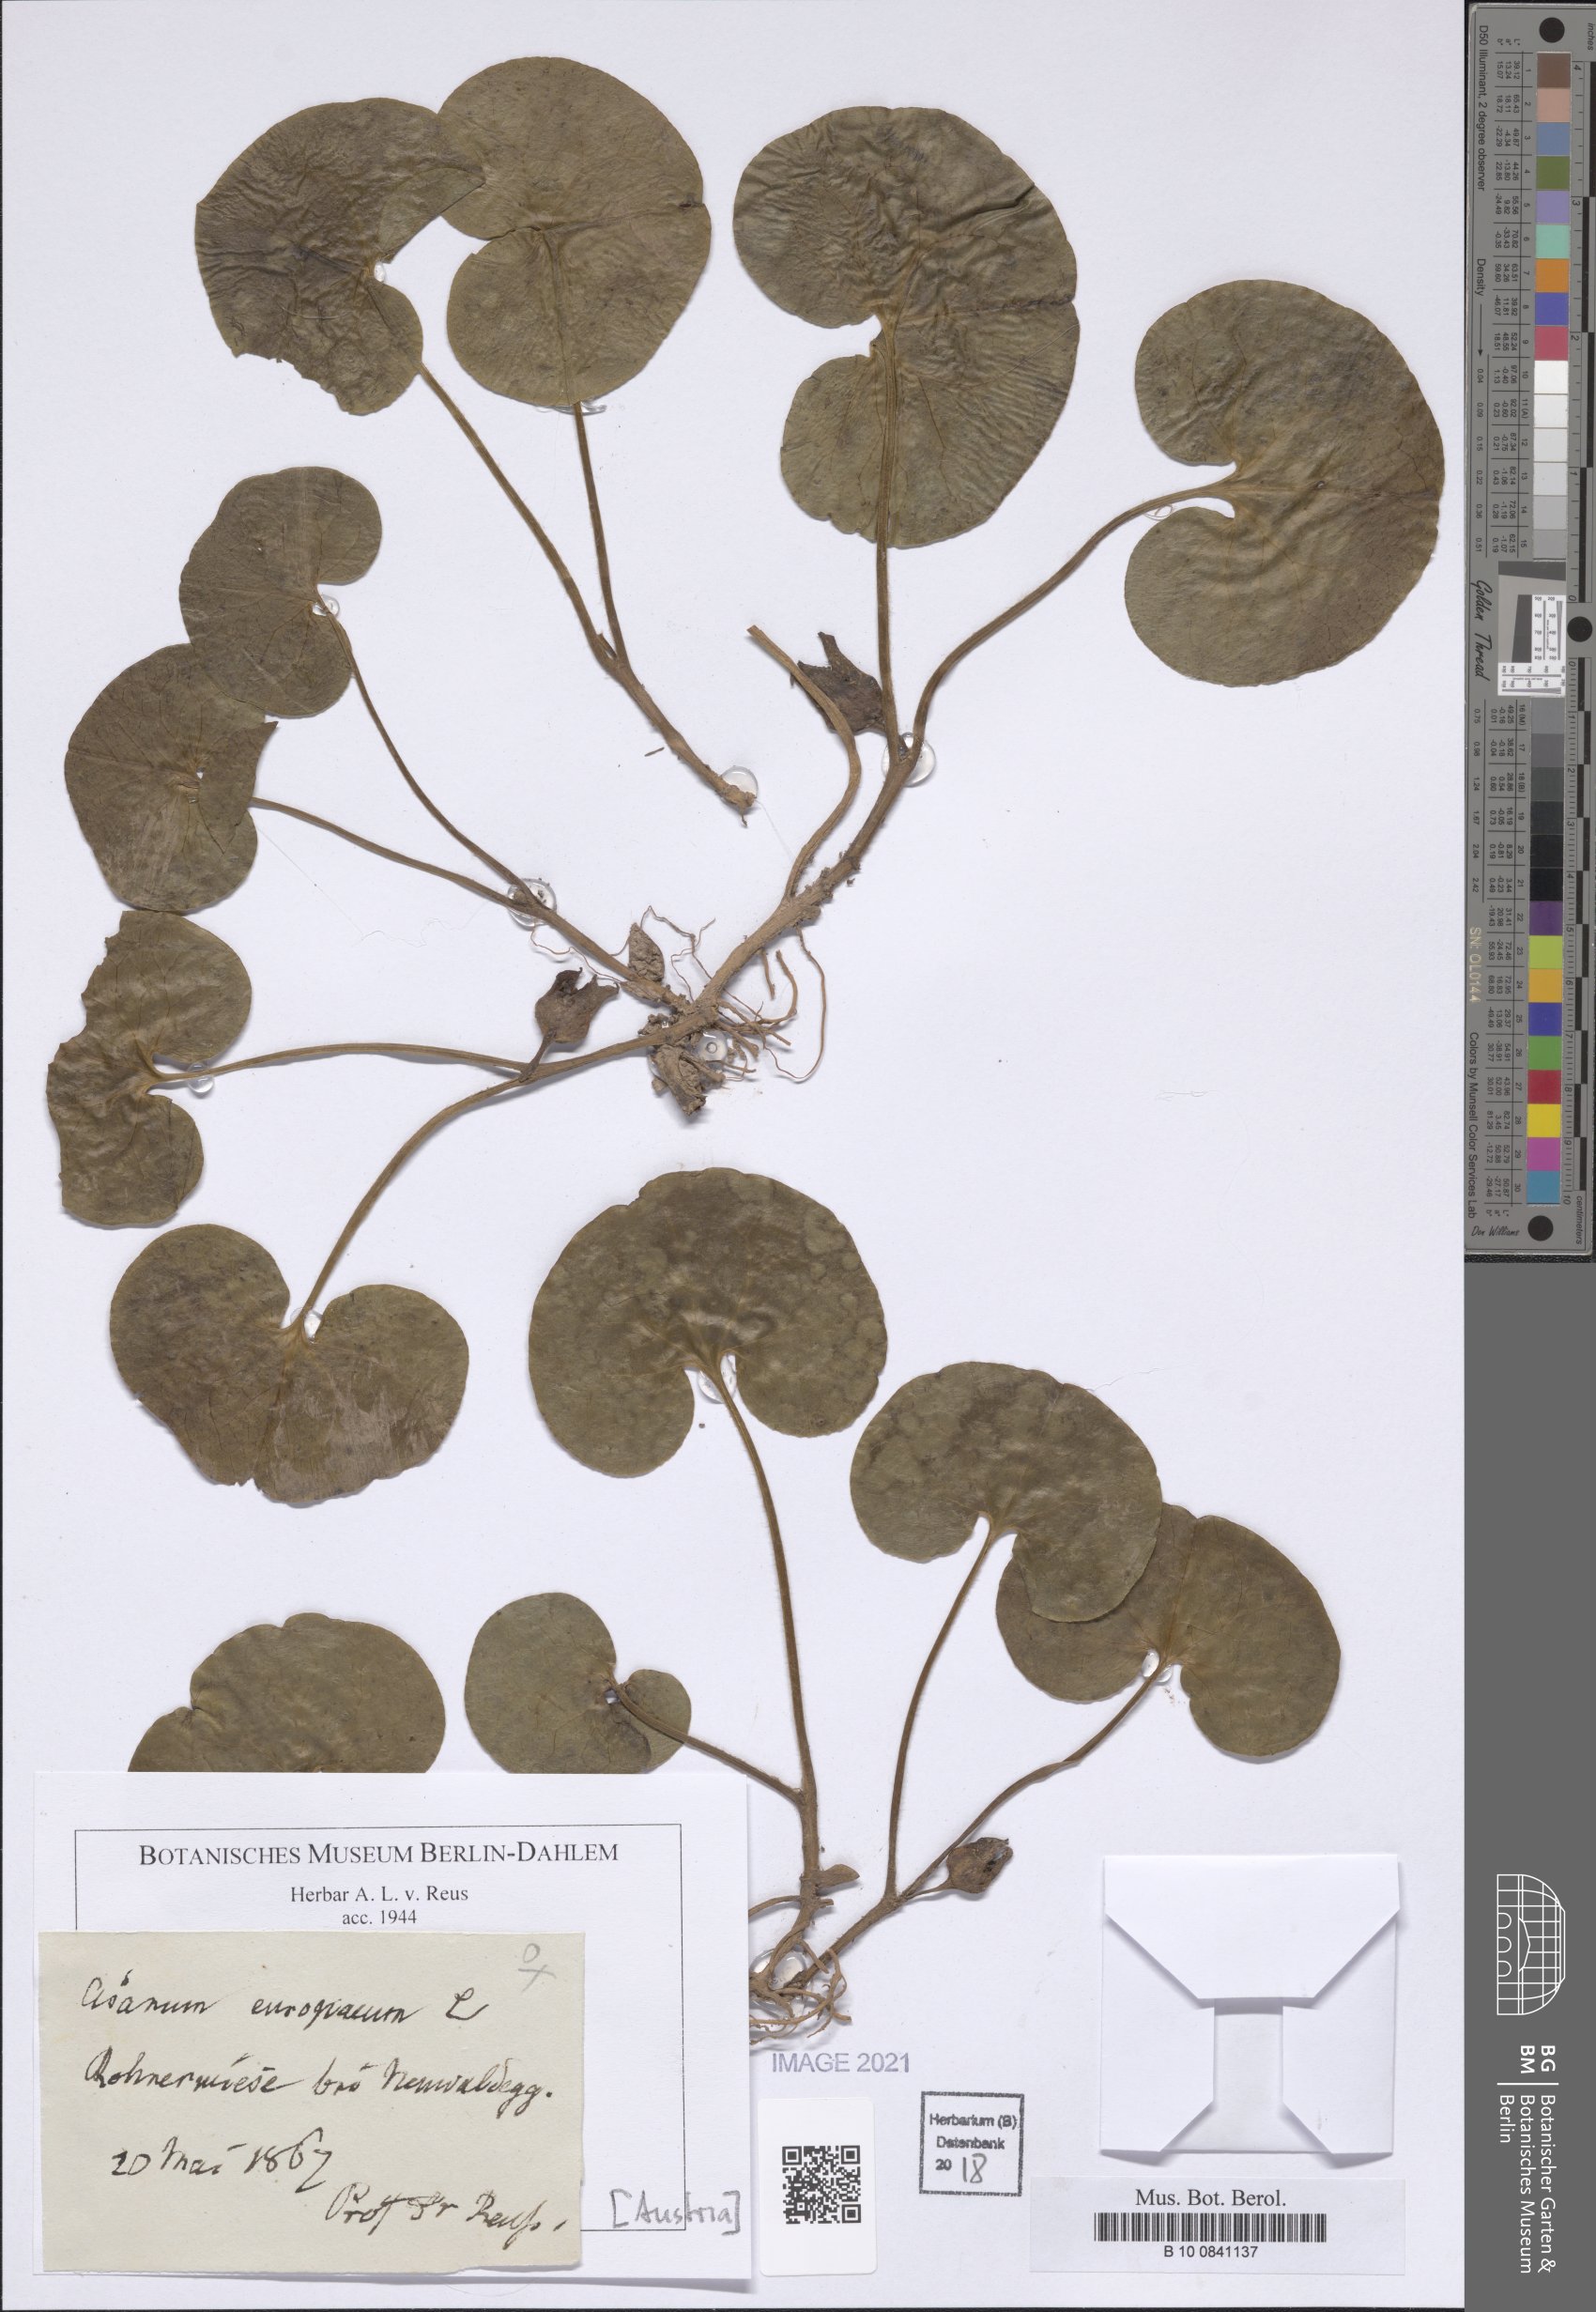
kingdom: Plantae
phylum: Tracheophyta
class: Magnoliopsida
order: Piperales
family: Aristolochiaceae
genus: Asarum
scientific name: Asarum europaeum
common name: Asarabacca
